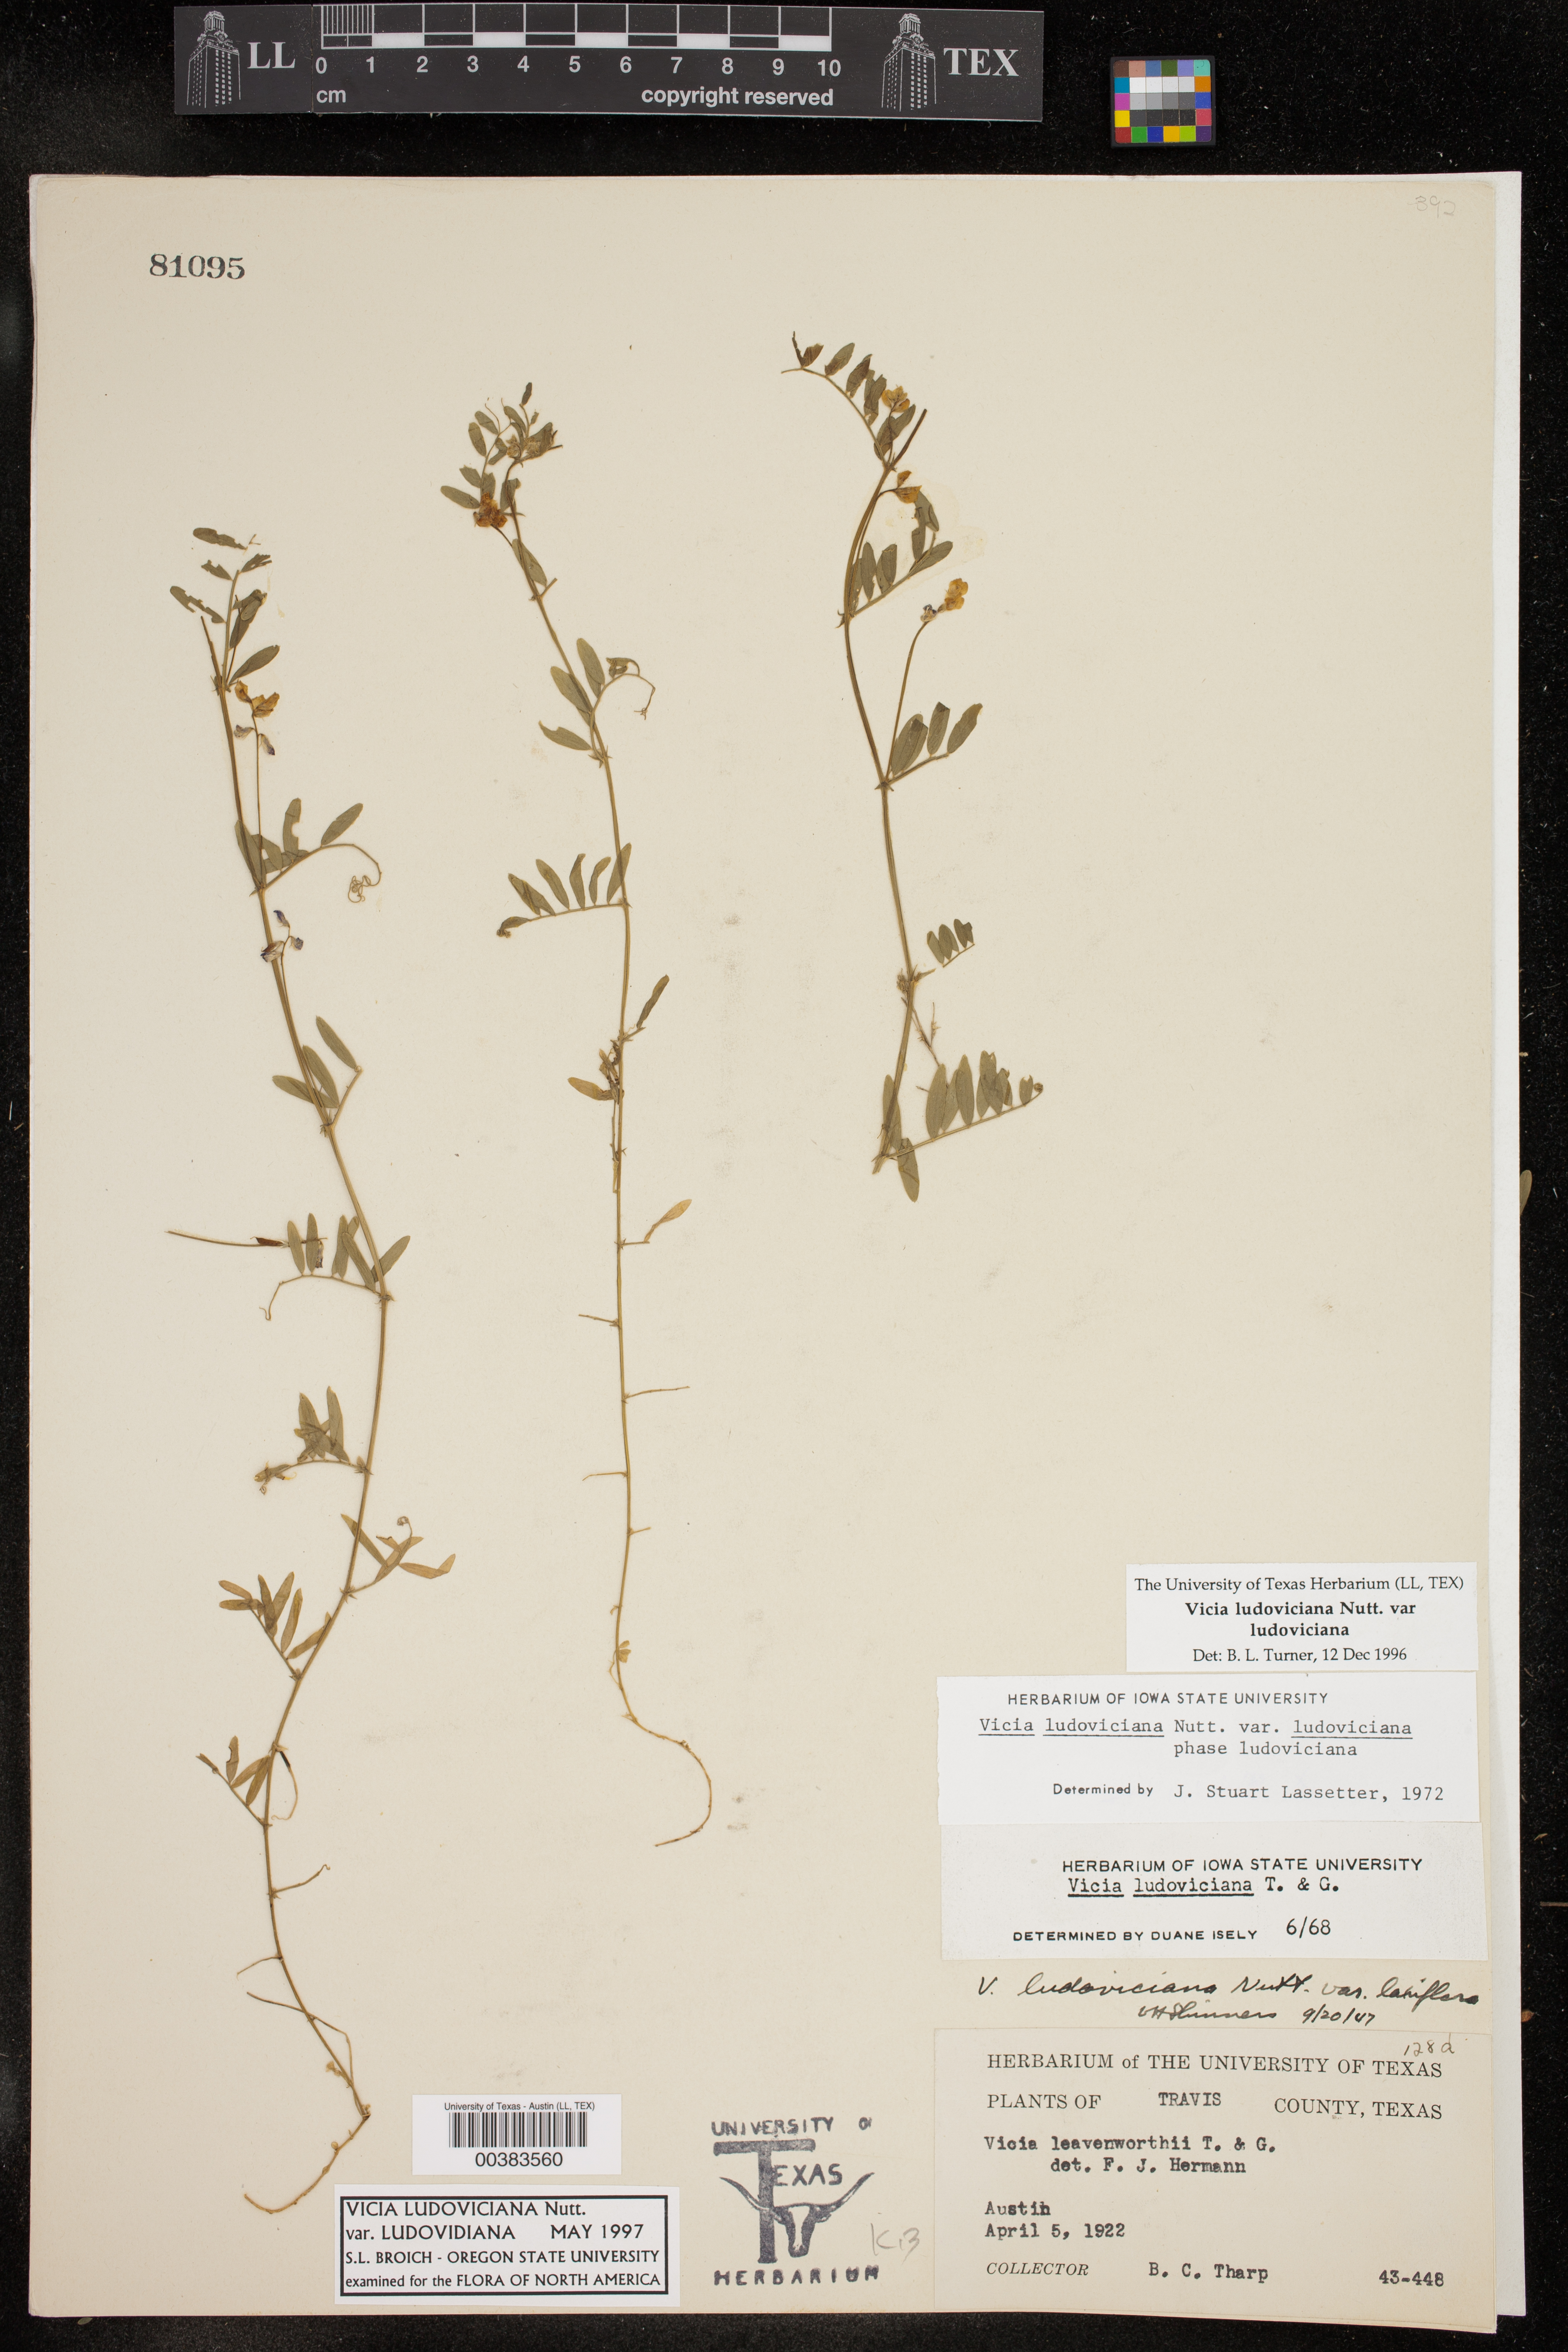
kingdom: Plantae
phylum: Tracheophyta
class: Magnoliopsida
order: Fabales
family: Fabaceae
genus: Vicia
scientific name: Vicia ludoviciana
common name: Louisiana vetch
